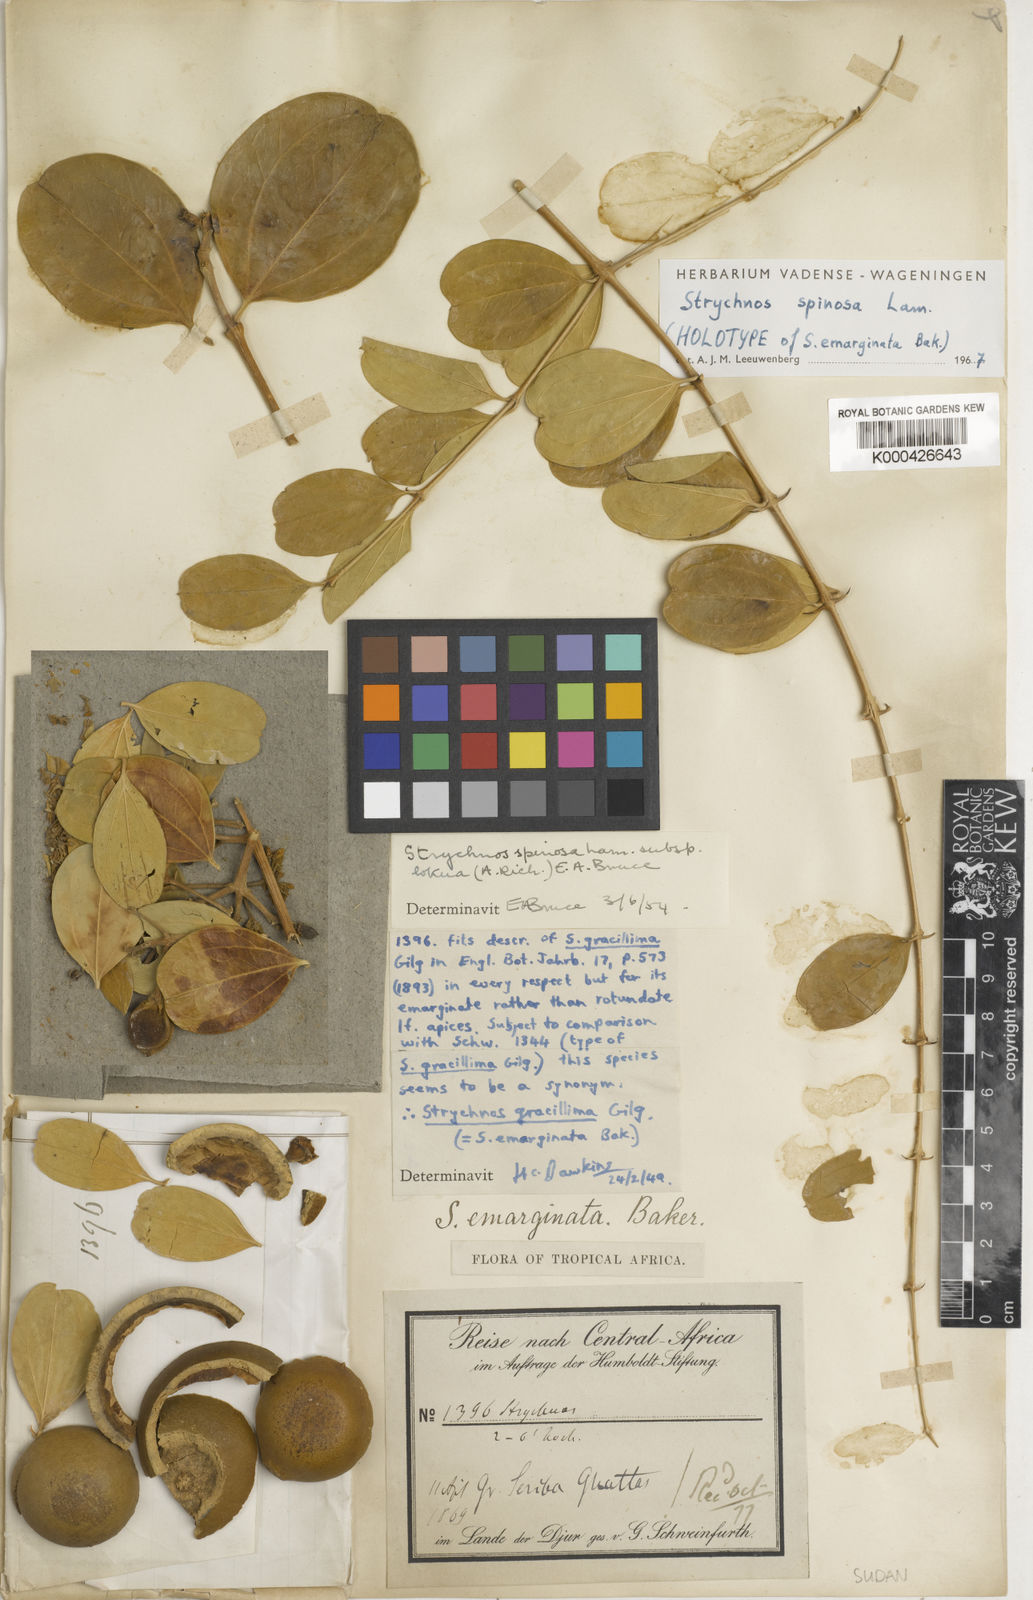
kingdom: Plantae
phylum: Tracheophyta
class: Magnoliopsida
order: Gentianales
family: Loganiaceae
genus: Strychnos
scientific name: Strychnos spinosa
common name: Natal orange
